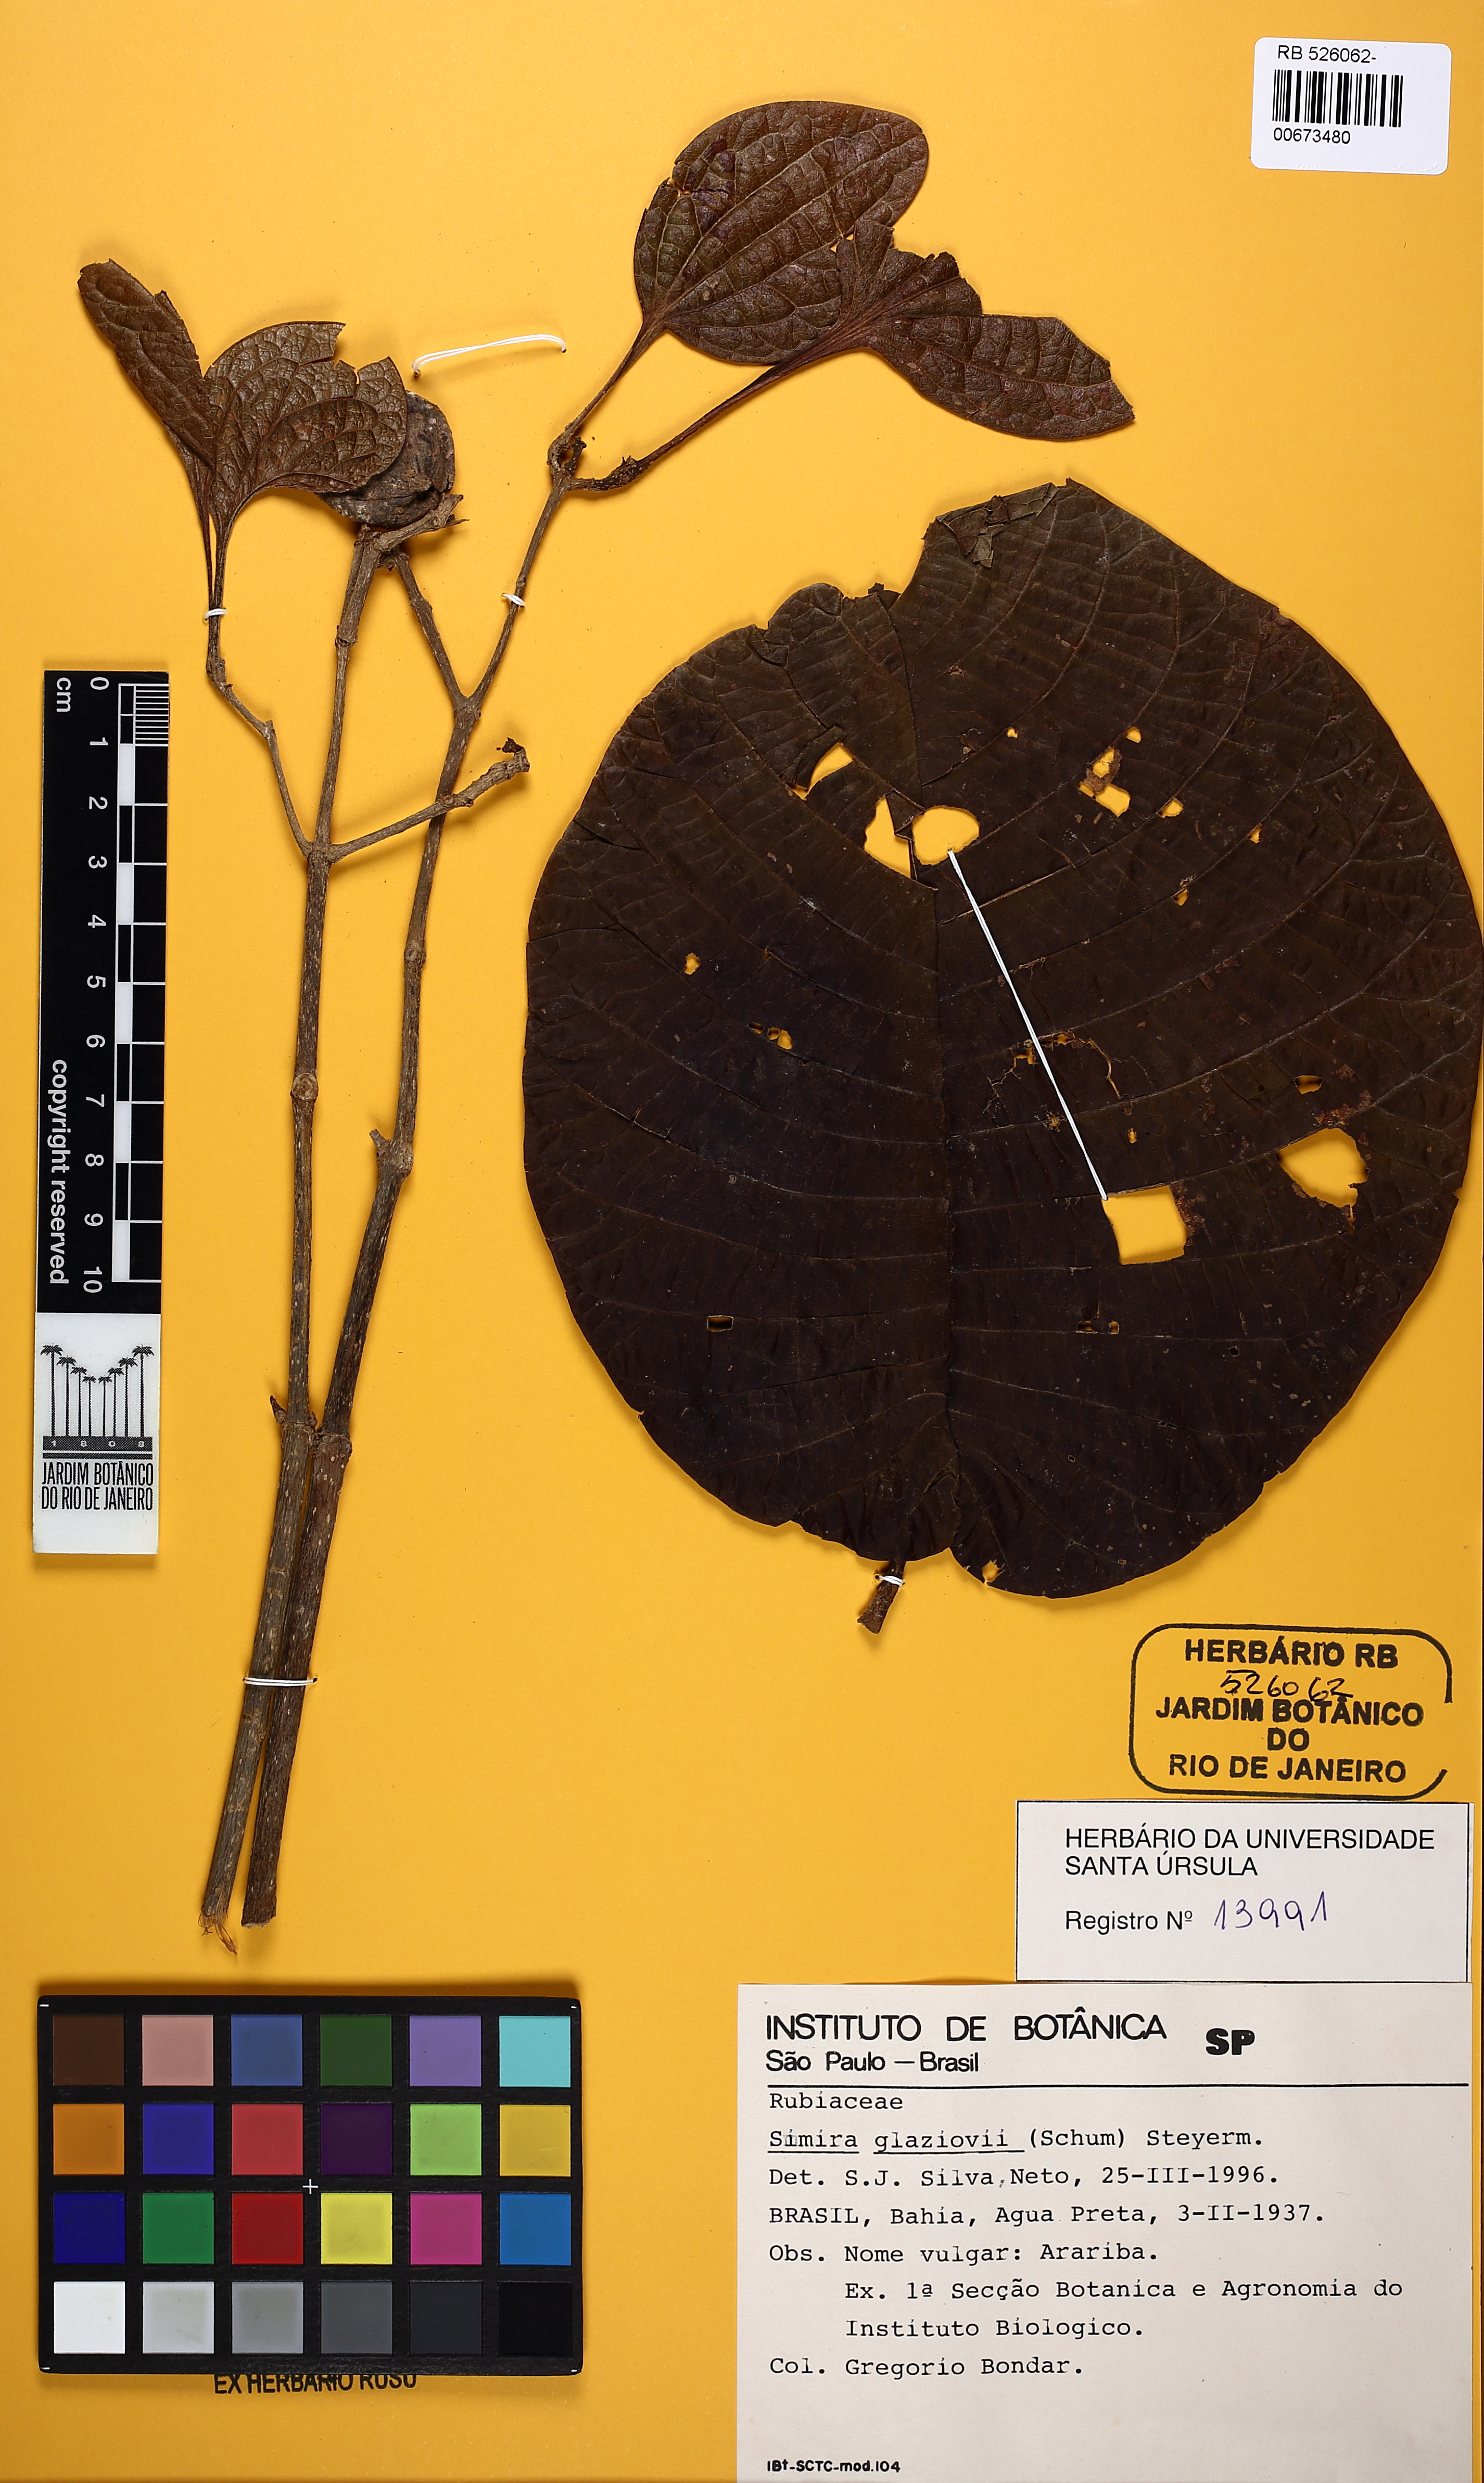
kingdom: Plantae
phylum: Tracheophyta
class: Magnoliopsida
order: Gentianales
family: Rubiaceae
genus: Simira
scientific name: Simira alba
